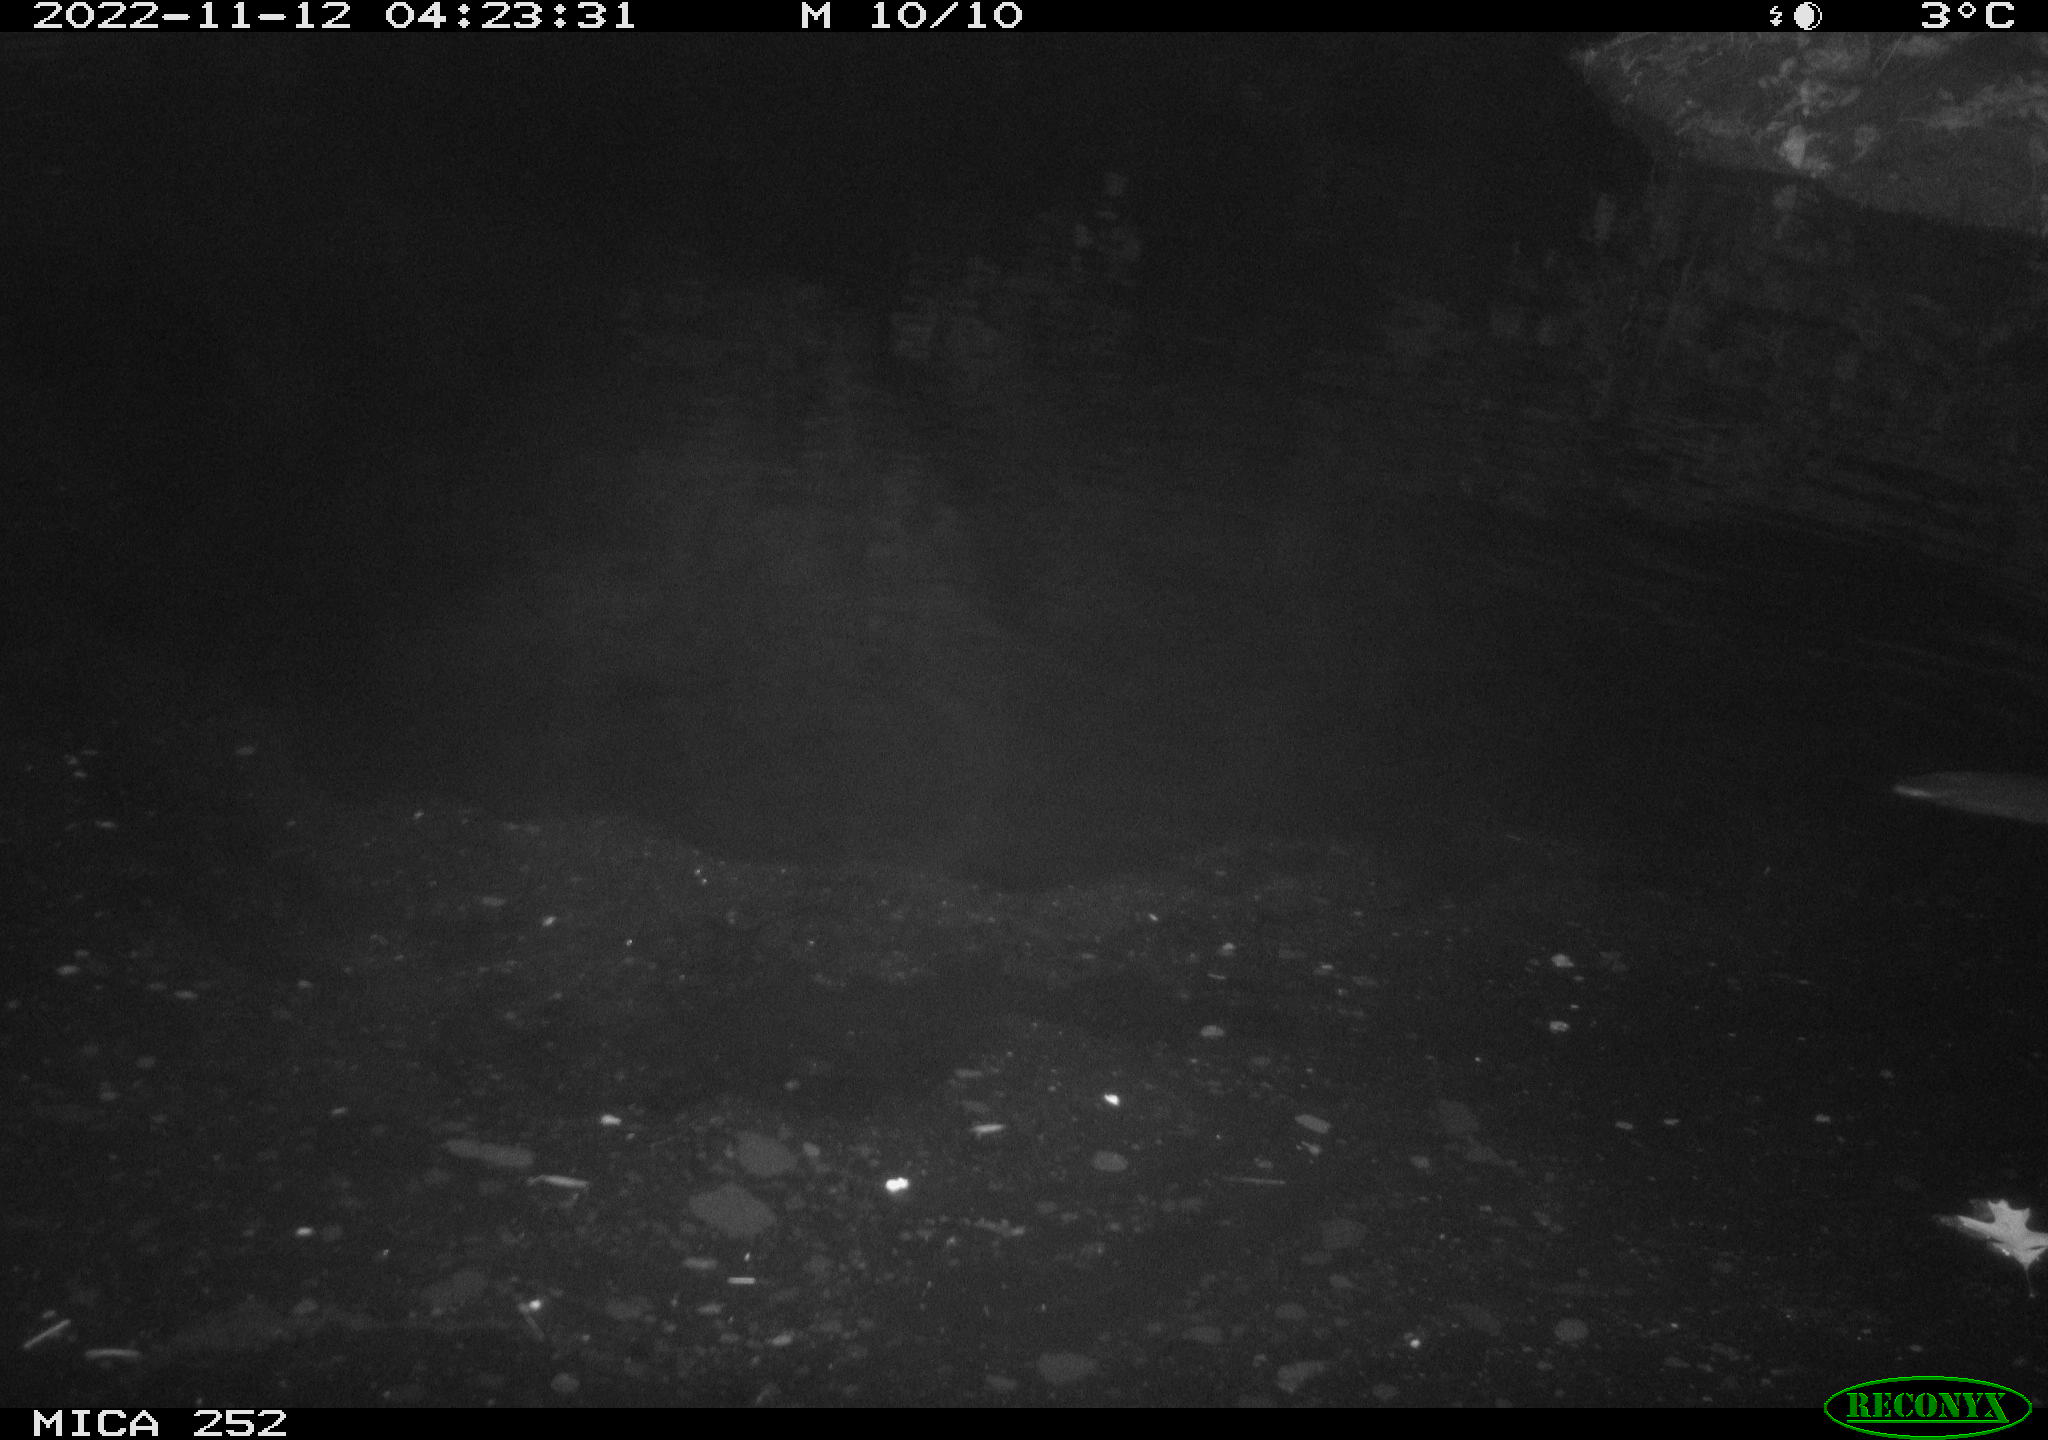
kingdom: Animalia
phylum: Chordata
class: Mammalia
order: Rodentia
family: Castoridae
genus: Castor
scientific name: Castor fiber
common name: Eurasian beaver
